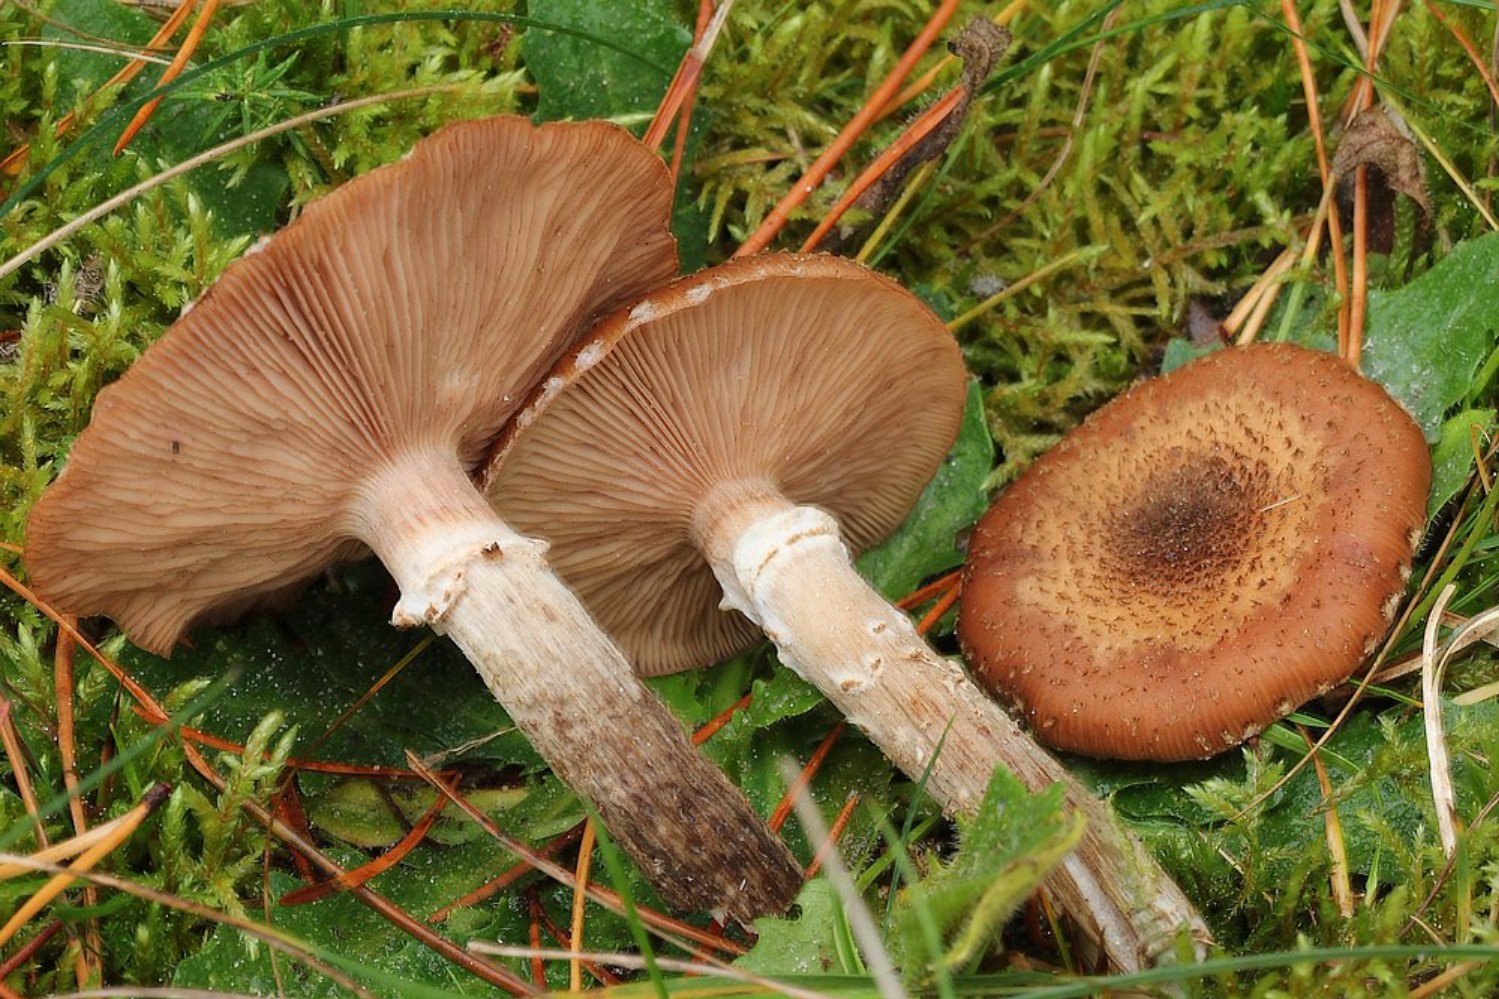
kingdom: Fungi
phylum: Basidiomycota
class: Agaricomycetes
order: Agaricales
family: Physalacriaceae
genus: Armillaria
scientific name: Armillaria ostoyae
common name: mørk honningsvamp
